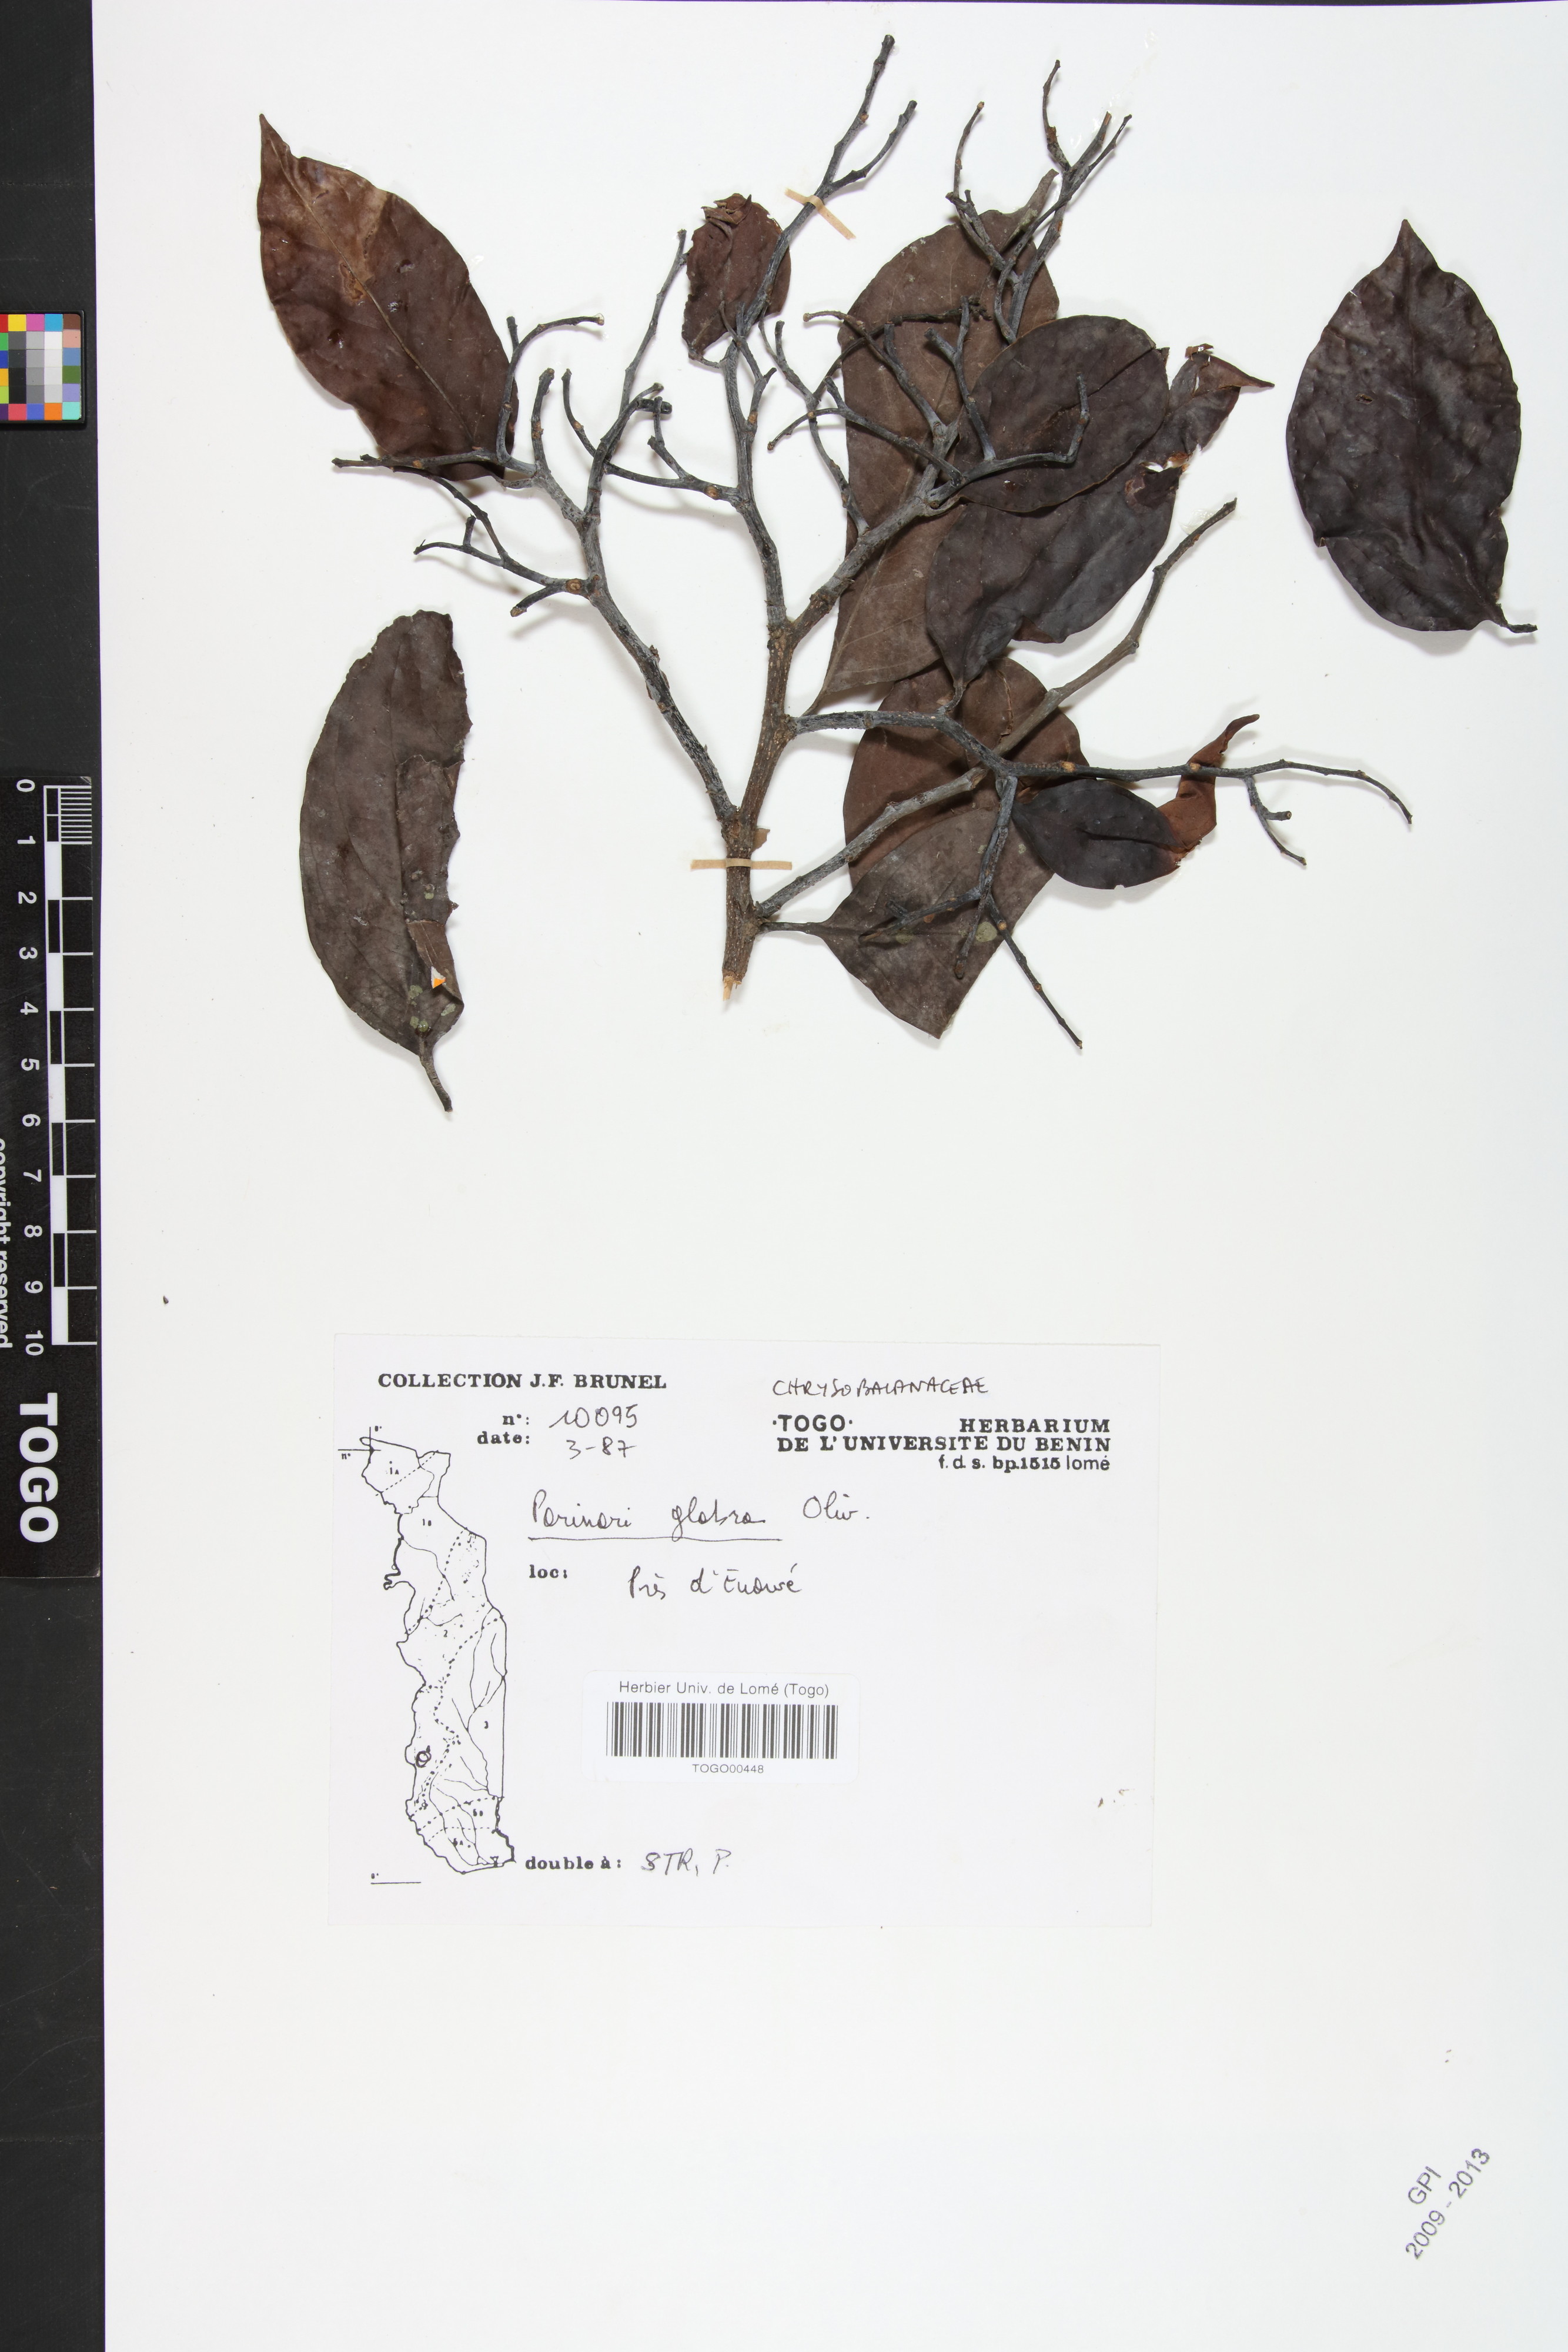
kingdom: Plantae
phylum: Tracheophyta
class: Magnoliopsida
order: Malpighiales
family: Chrysobalanaceae
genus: Maranthes
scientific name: Maranthes glabra
